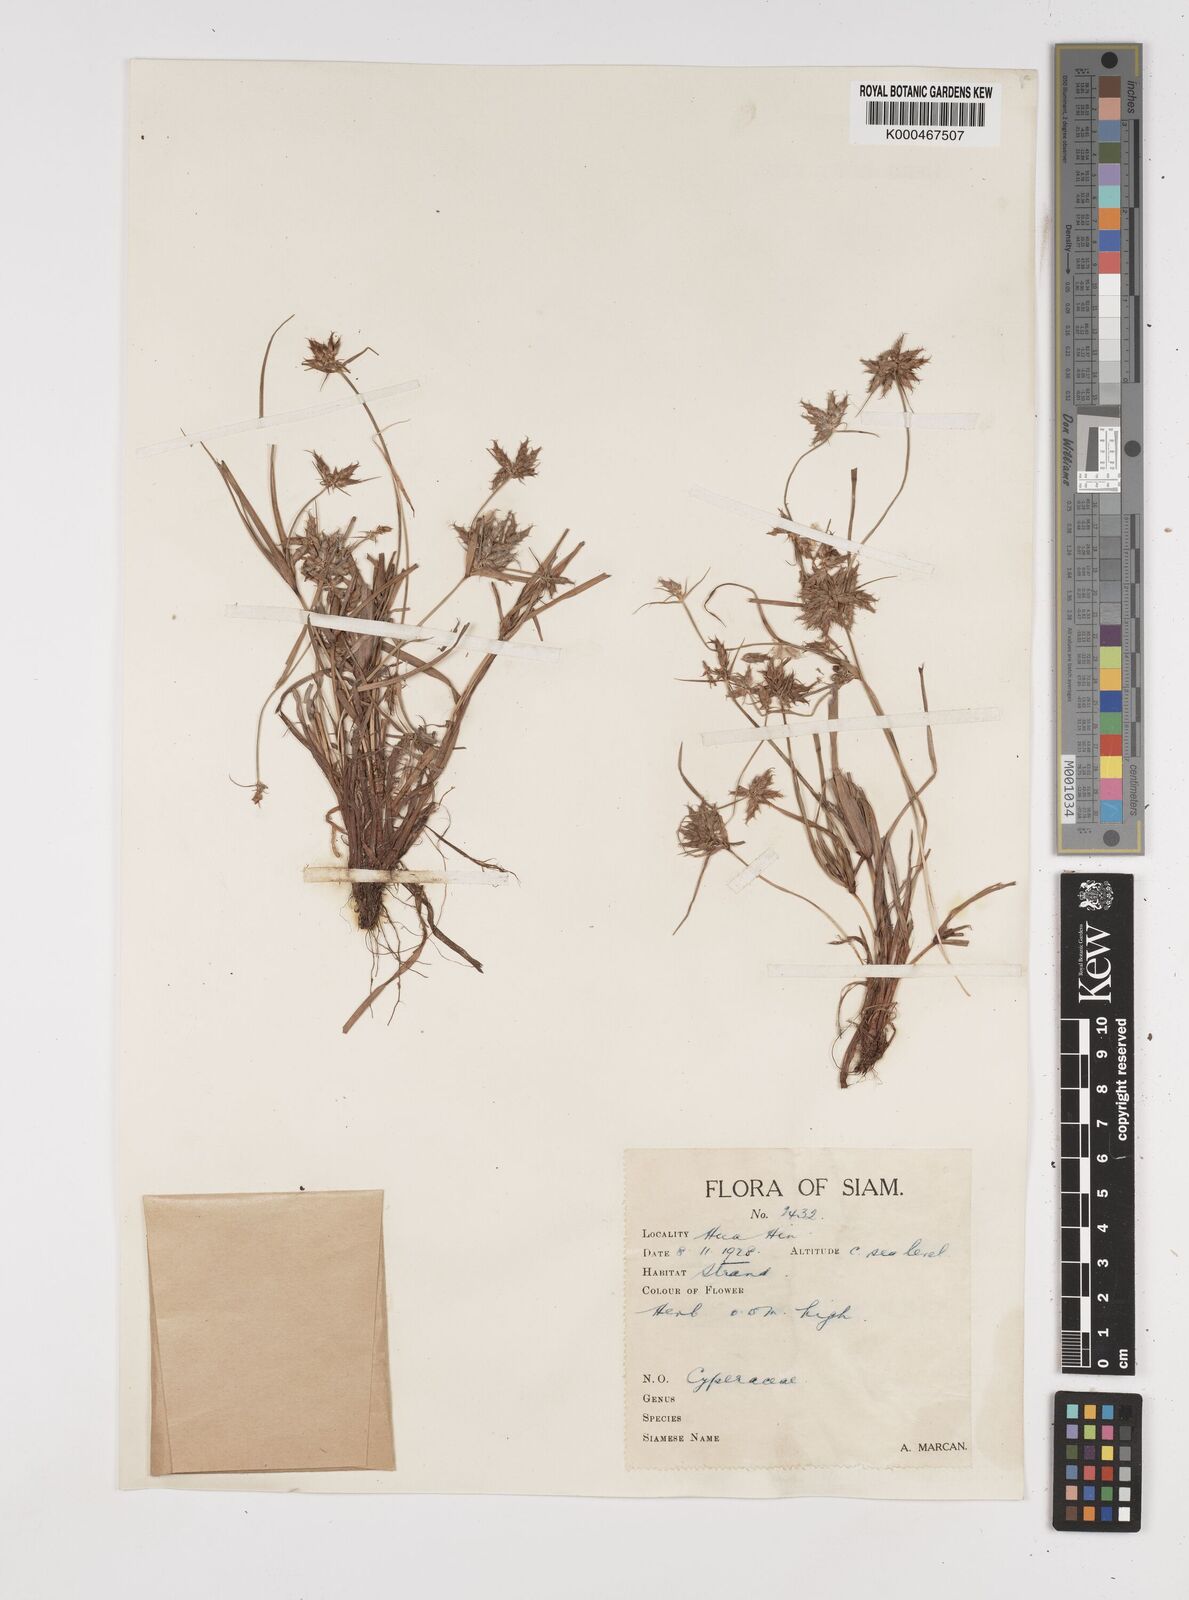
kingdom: Plantae
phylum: Tracheophyta
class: Liliopsida
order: Poales
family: Cyperaceae
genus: Cyperus
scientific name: Cyperus radians
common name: Short-stem cyperus
